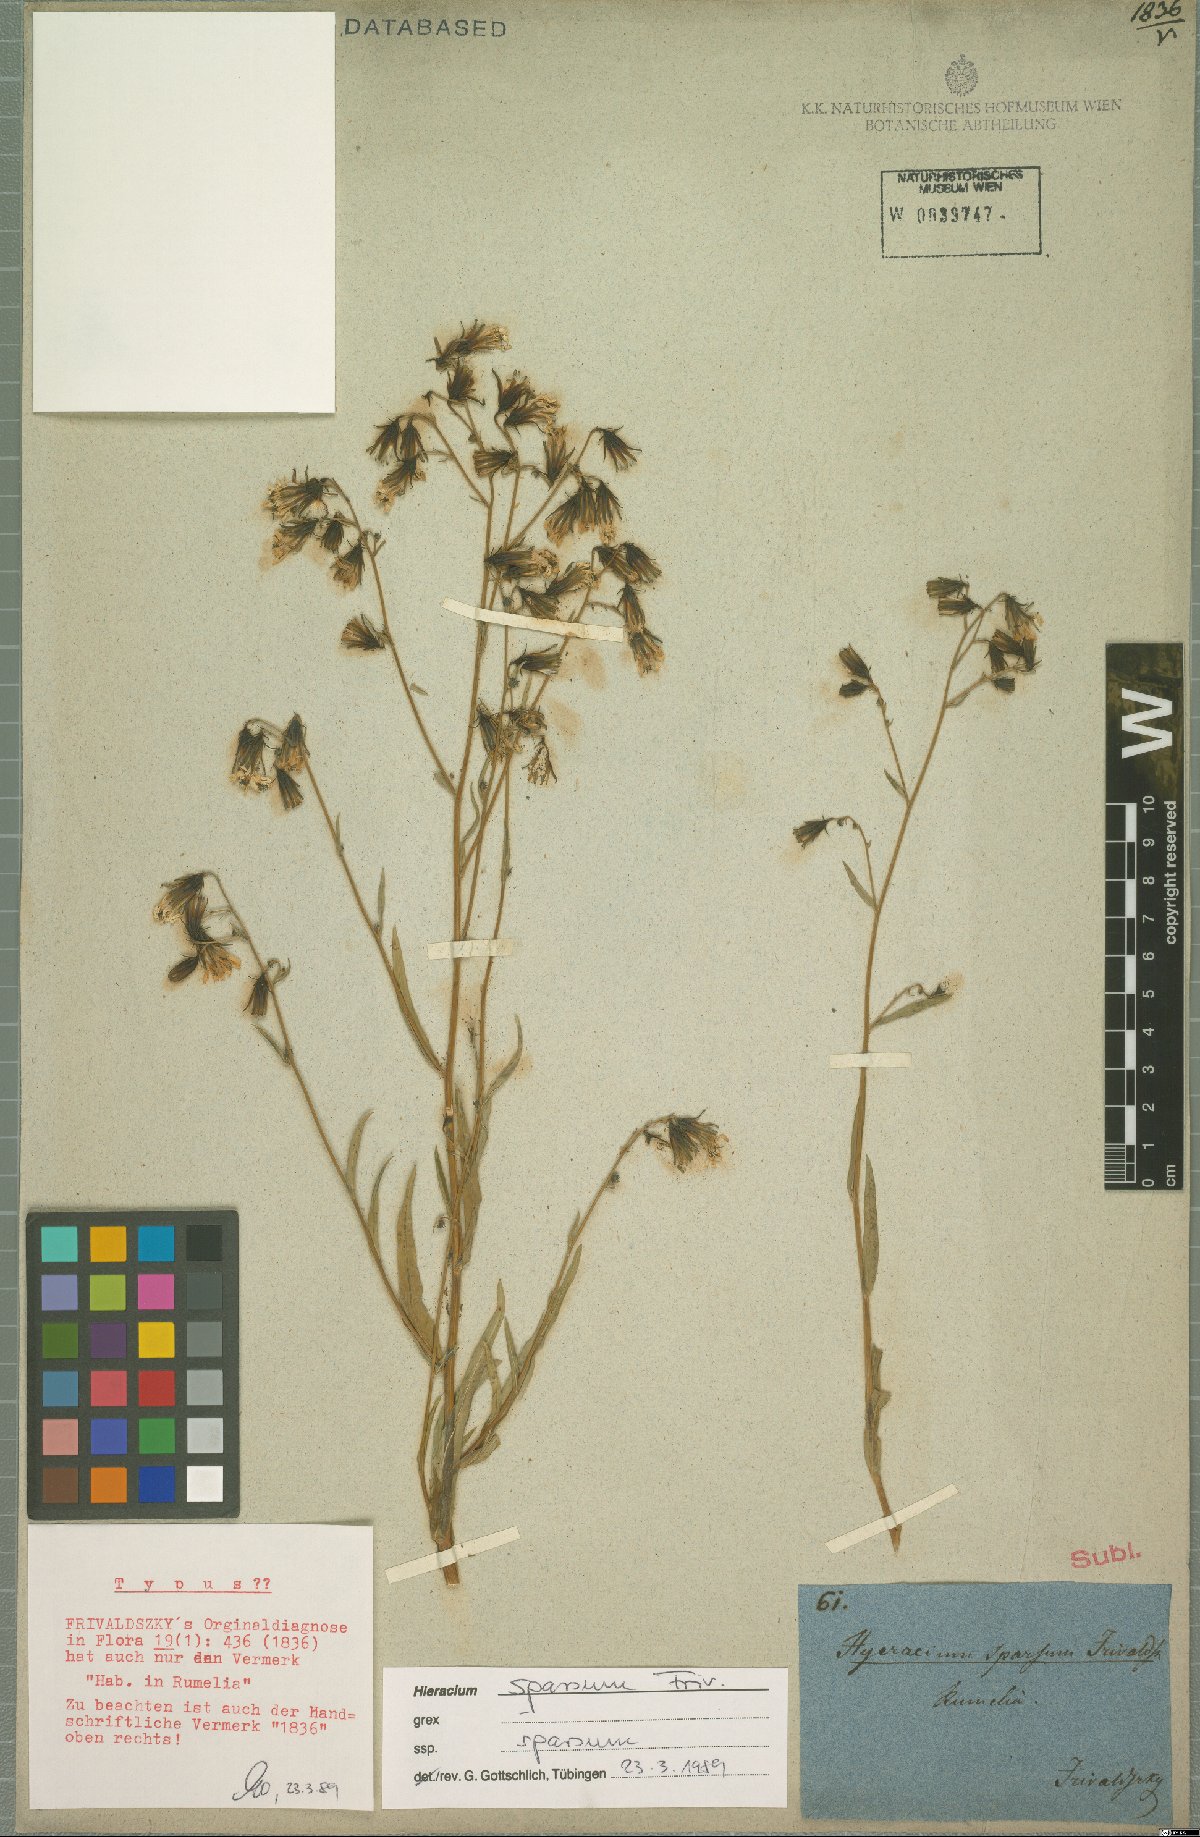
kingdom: Plantae
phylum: Tracheophyta
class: Magnoliopsida
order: Asterales
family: Asteraceae
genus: Hieracium
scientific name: Hieracium sparsum
